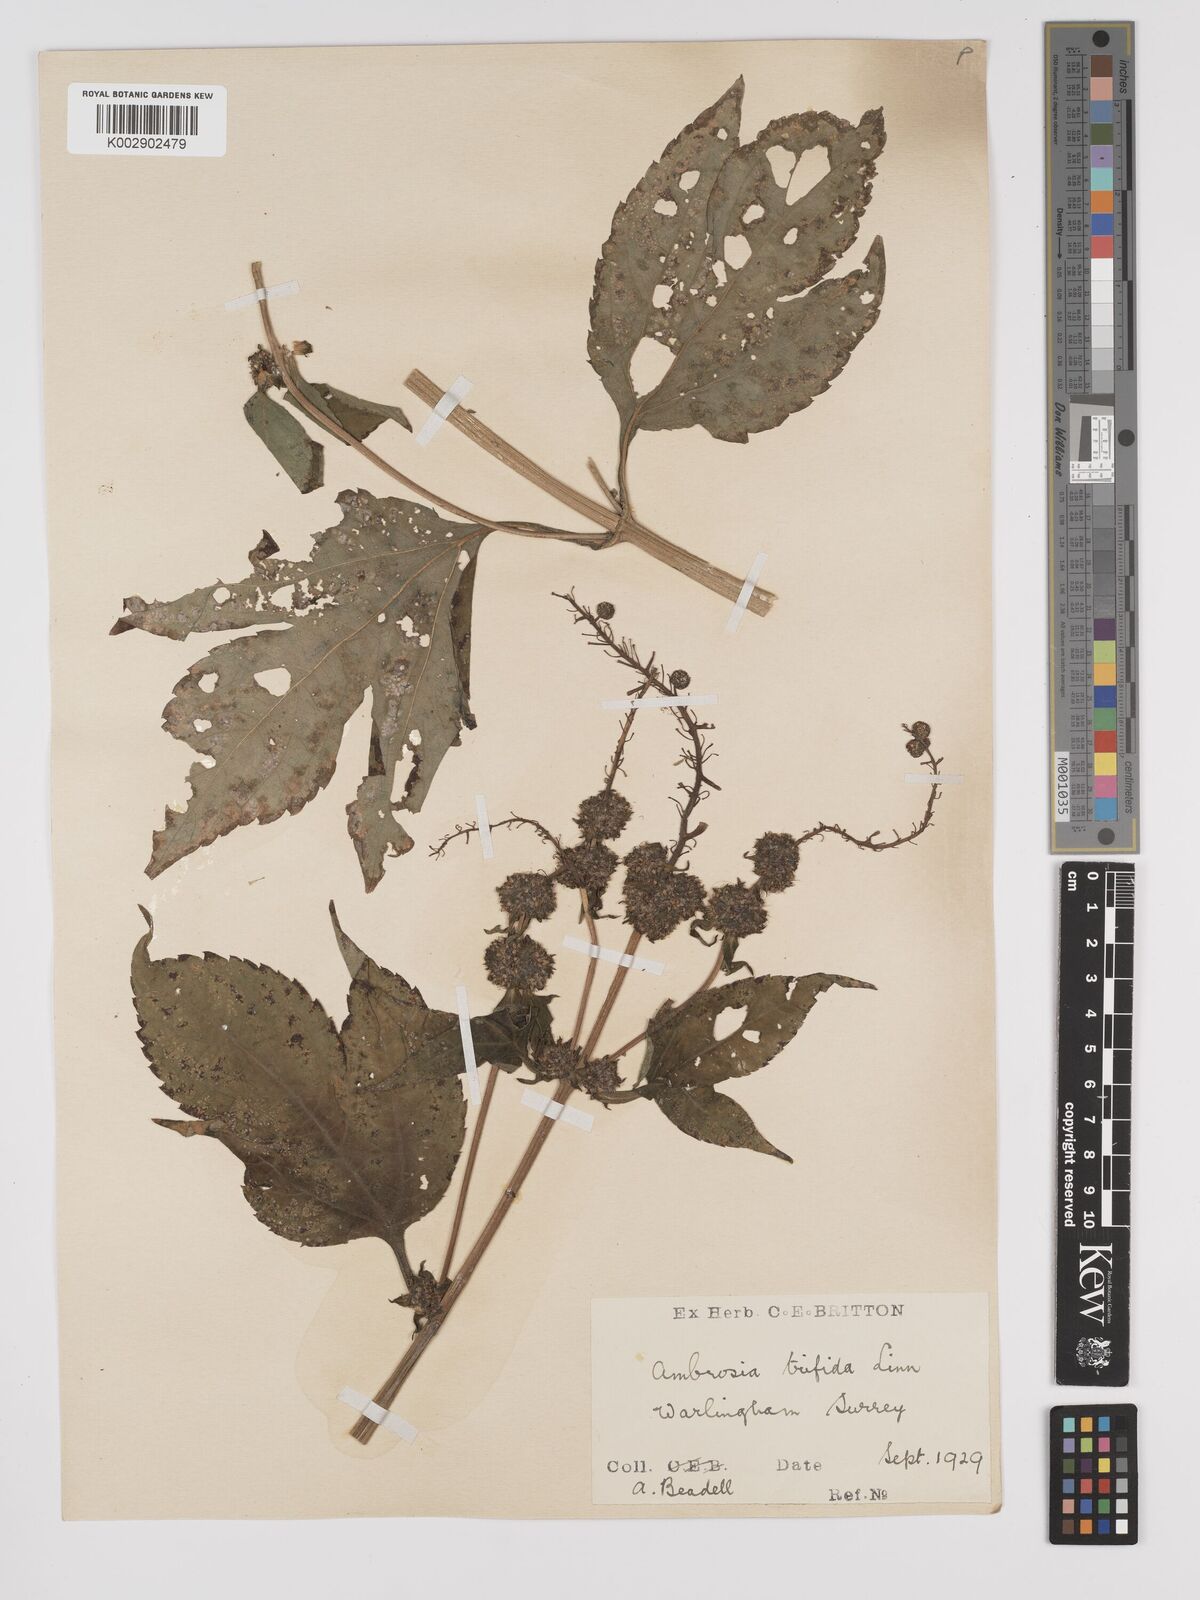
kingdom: Plantae
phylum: Tracheophyta
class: Magnoliopsida
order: Asterales
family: Asteraceae
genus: Ambrosia
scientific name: Ambrosia trifida
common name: Giant ragweed
